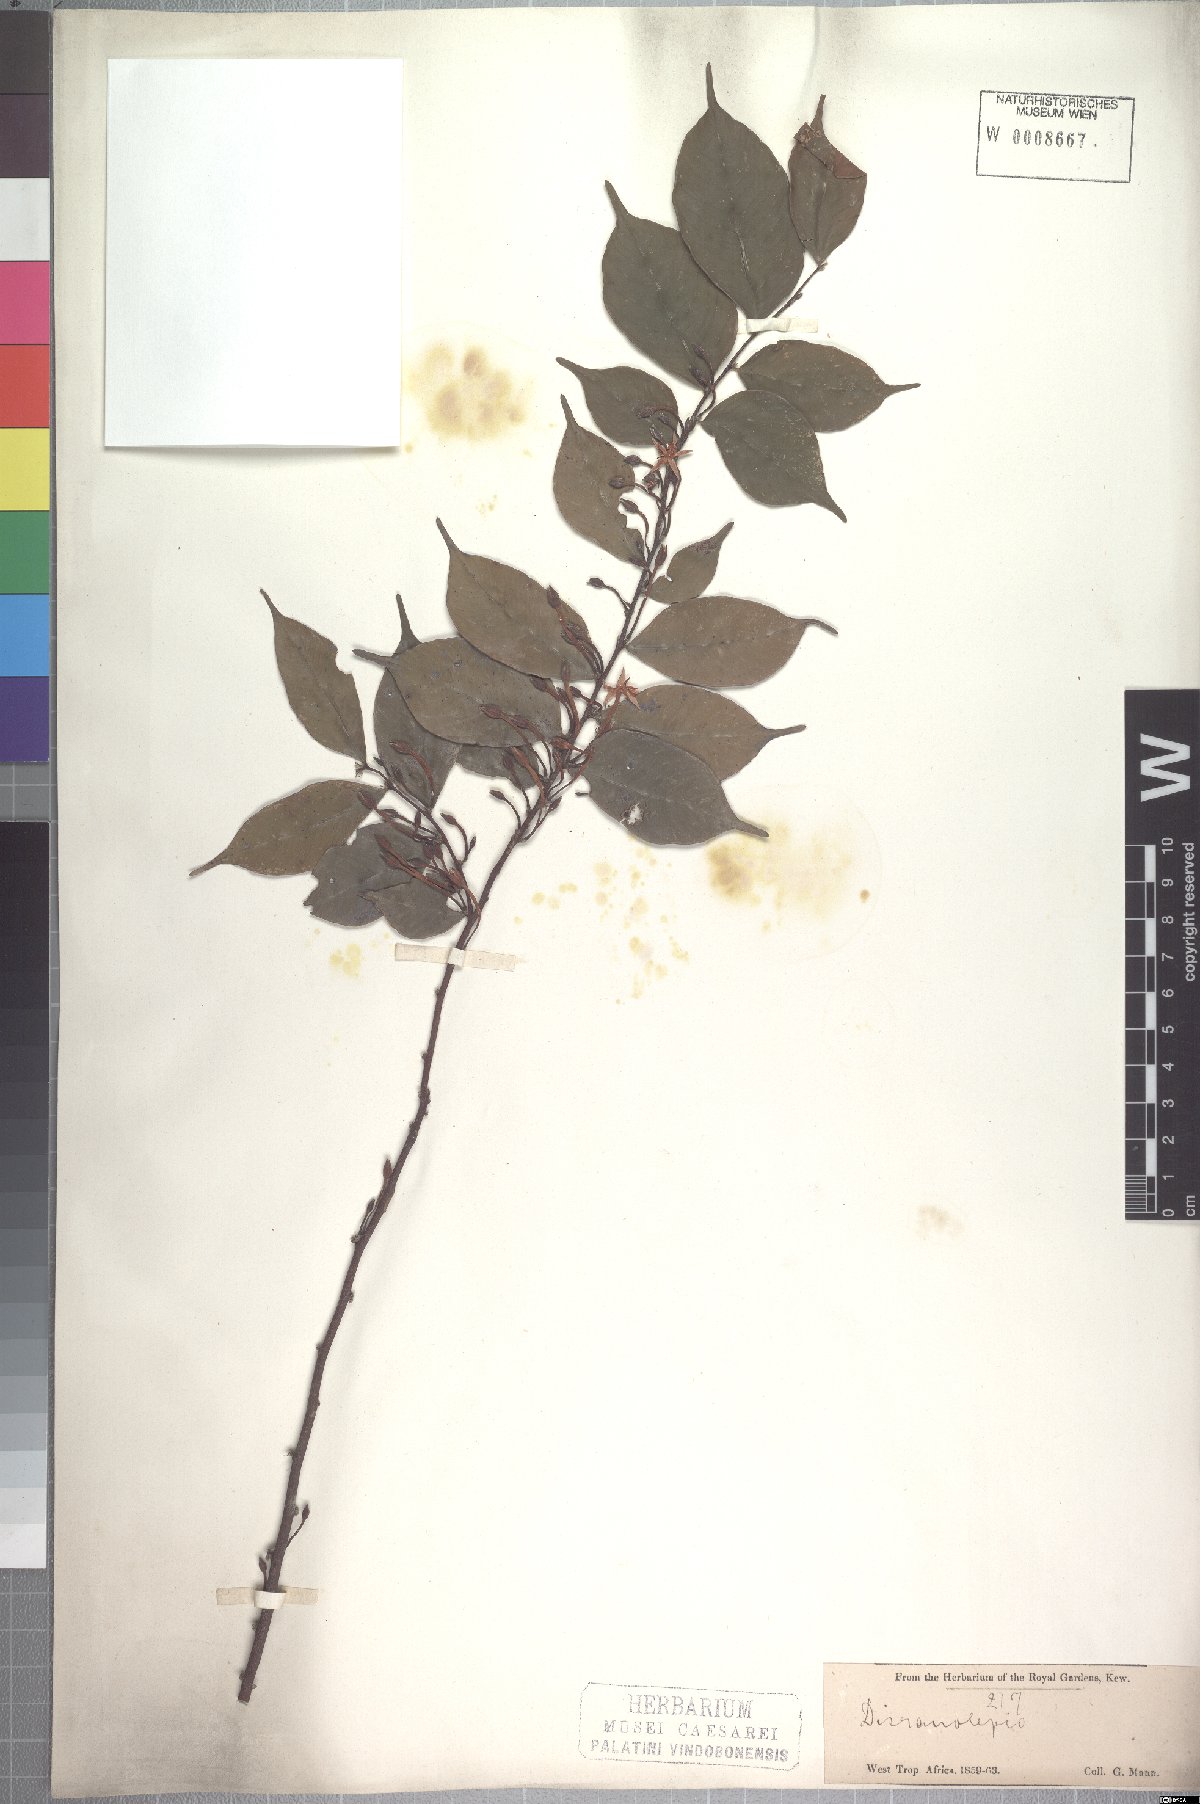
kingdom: Plantae
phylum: Tracheophyta
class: Magnoliopsida
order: Malvales
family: Thymelaeaceae
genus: Dicranolepis
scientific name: Dicranolepis disticha
